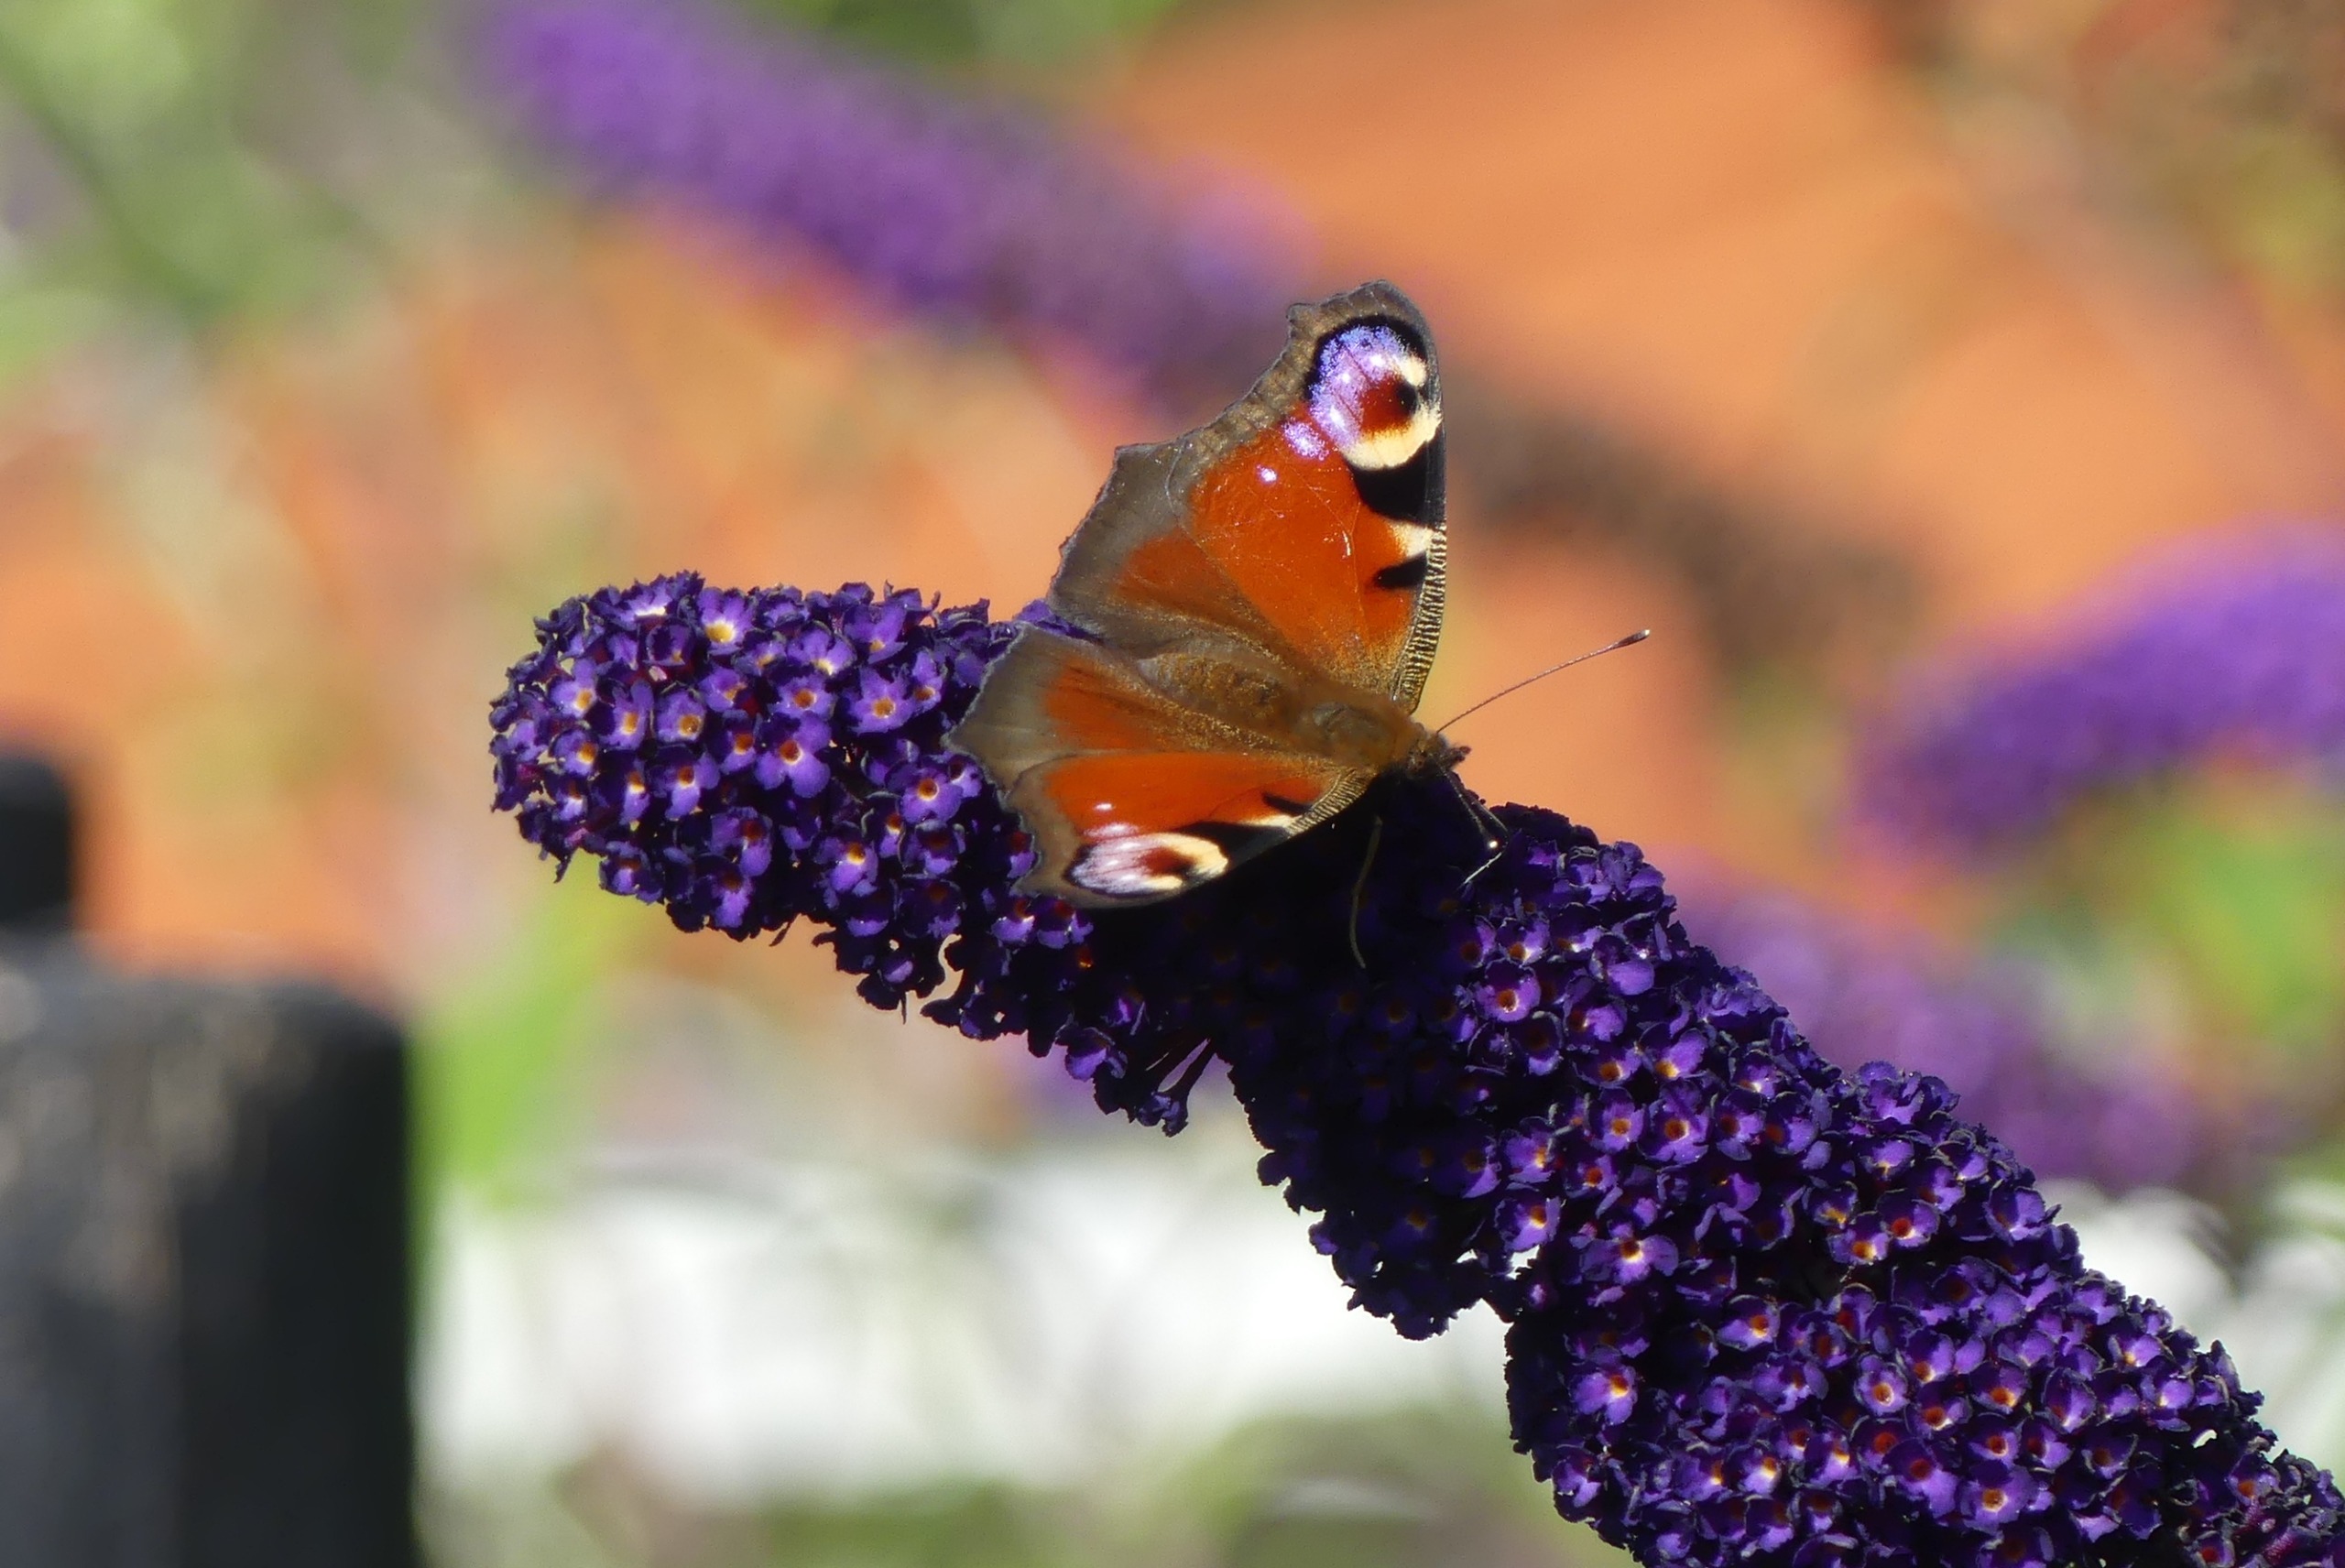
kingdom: Animalia
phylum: Arthropoda
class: Insecta
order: Lepidoptera
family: Nymphalidae
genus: Aglais
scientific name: Aglais io
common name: Dagpåfugleøje
